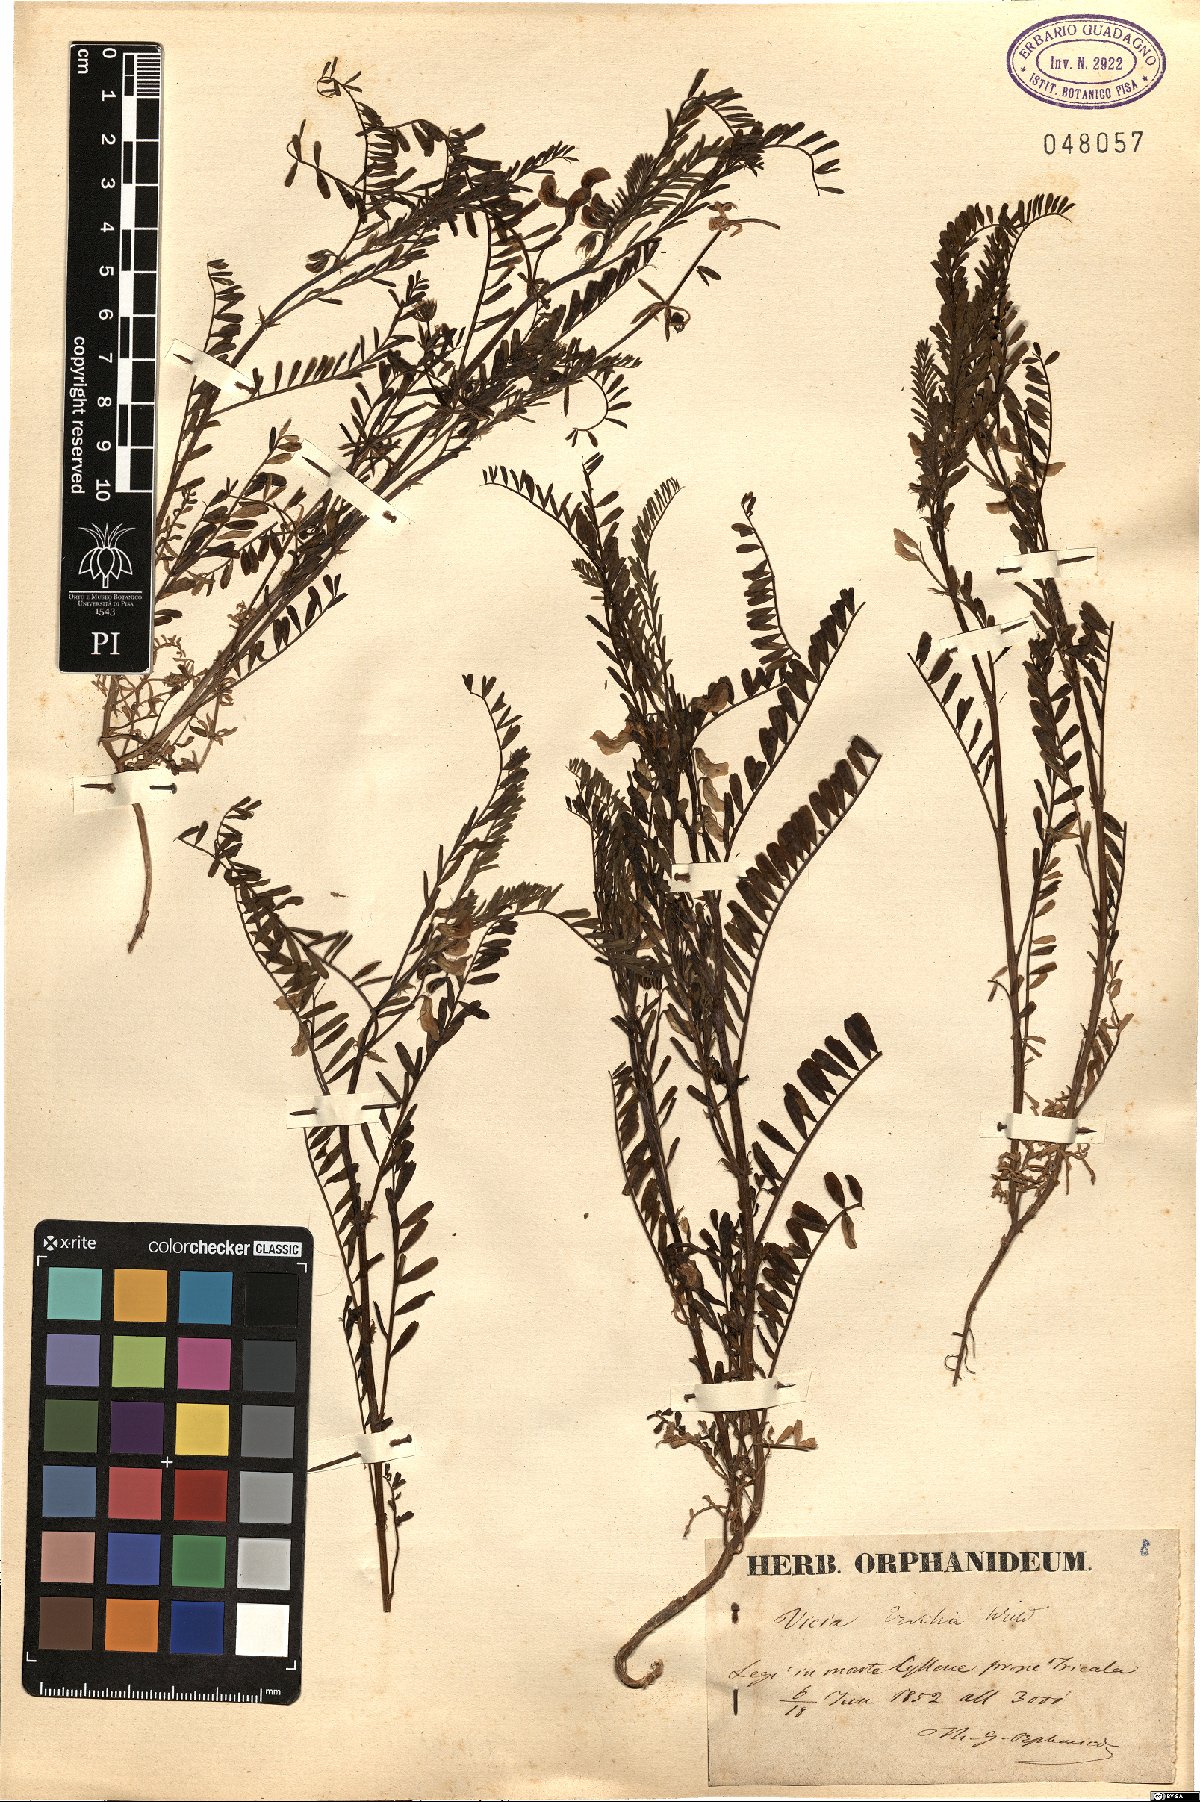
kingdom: Plantae
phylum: Tracheophyta
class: Magnoliopsida
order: Fabales
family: Fabaceae
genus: Vicia
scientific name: Vicia ervilia
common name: Bitter vetch
